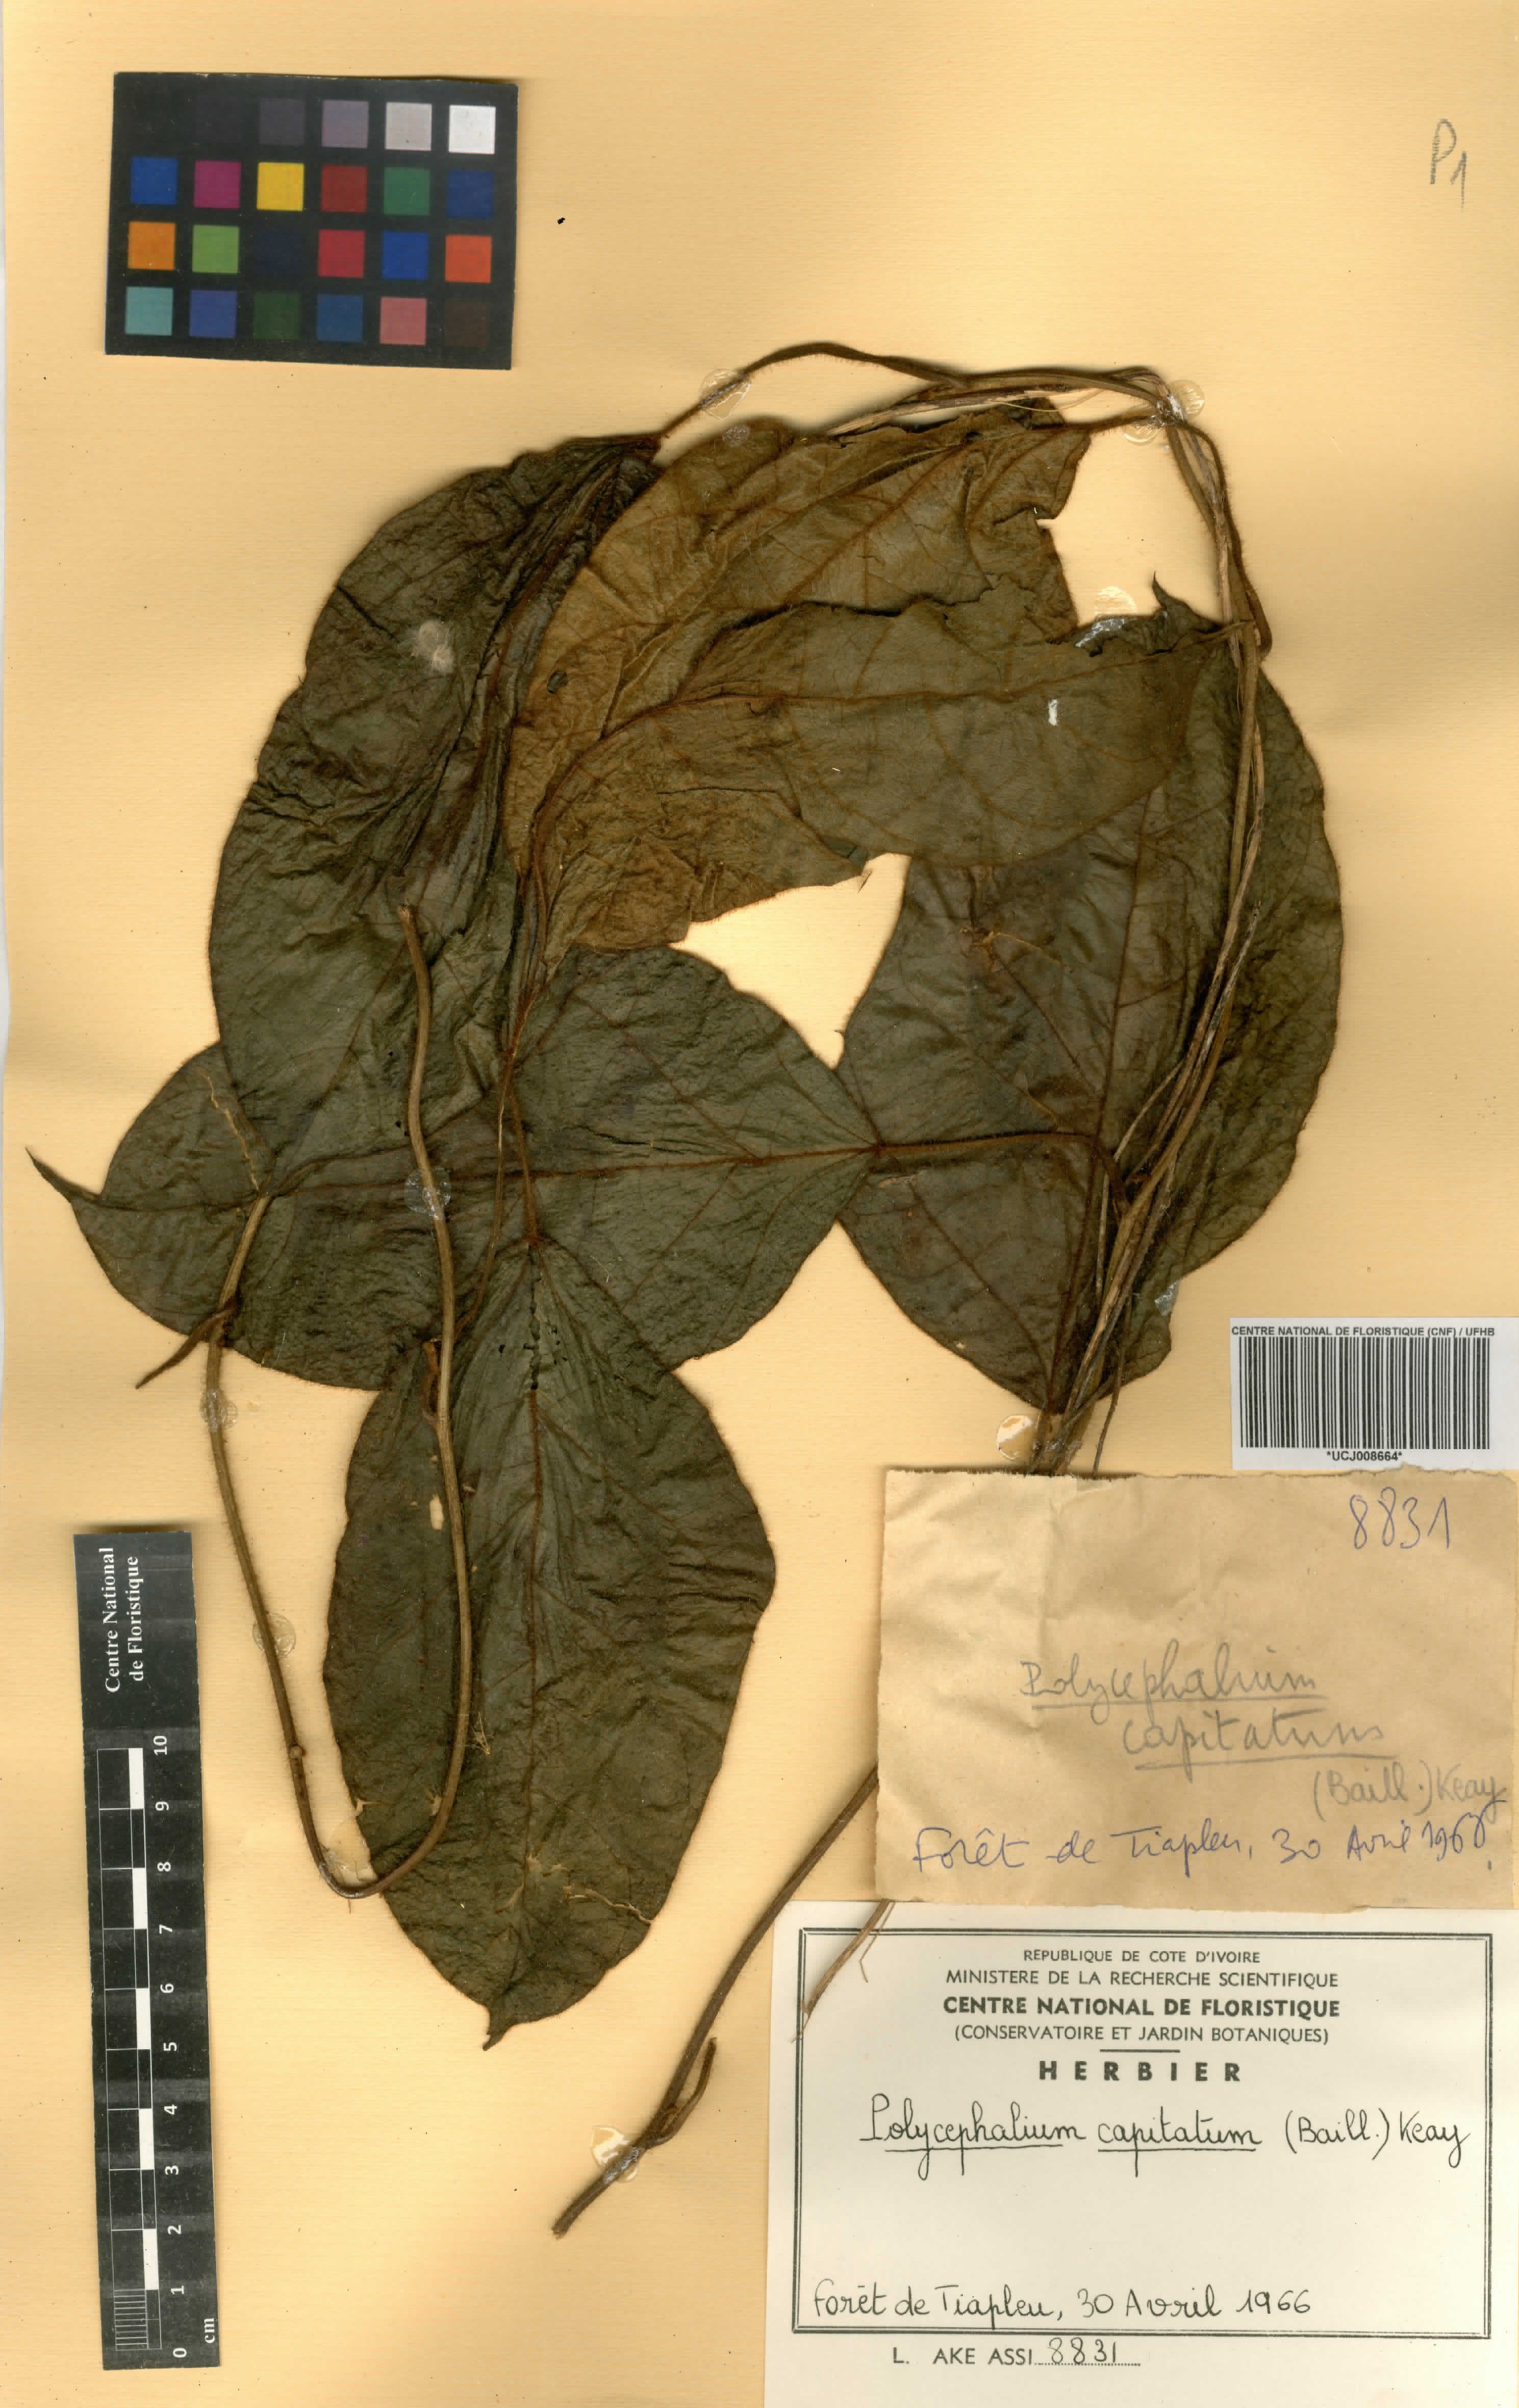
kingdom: Plantae
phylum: Tracheophyta
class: Magnoliopsida
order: Icacinales
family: Icacinaceae
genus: Pyrenacantha
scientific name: Pyrenacantha manchesteriana
